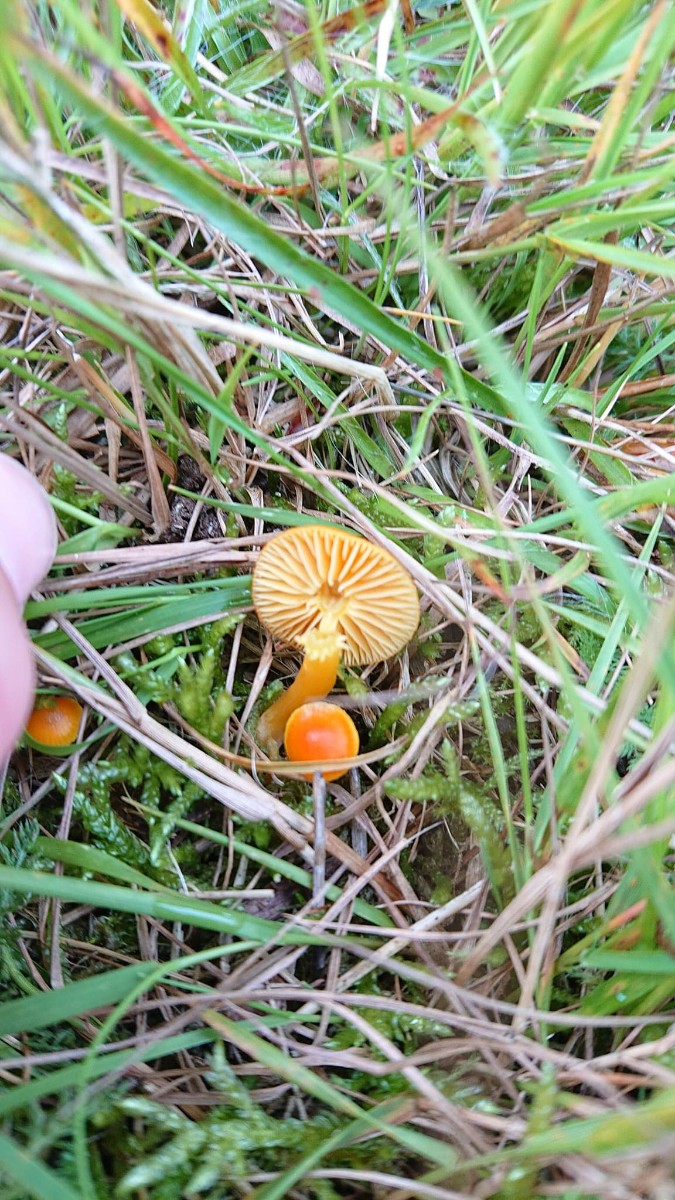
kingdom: Fungi
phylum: Basidiomycota
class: Agaricomycetes
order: Agaricales
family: Hygrophoraceae
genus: Hygrocybe
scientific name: Hygrocybe ceracea
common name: voksgul vokshat
